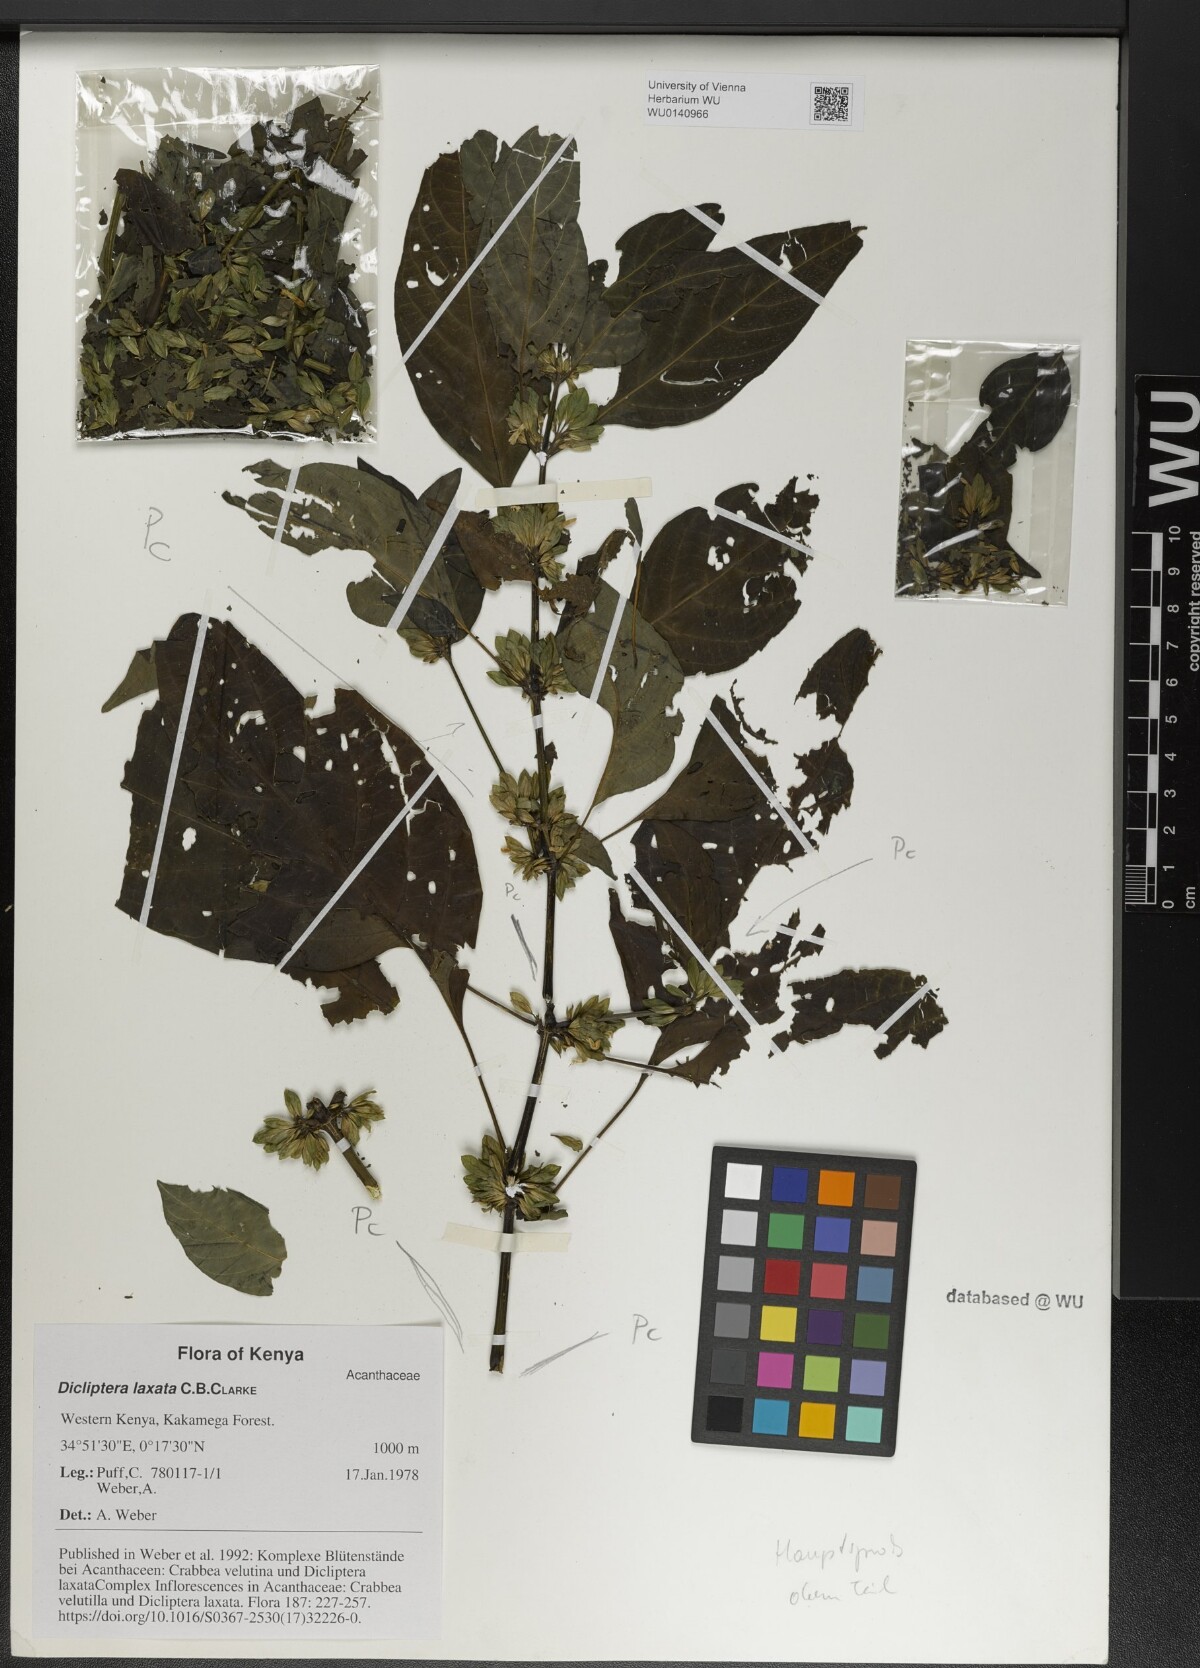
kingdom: Plantae
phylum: Tracheophyta
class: Magnoliopsida
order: Lamiales
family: Acanthaceae
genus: Dicliptera
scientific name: Dicliptera laxata
